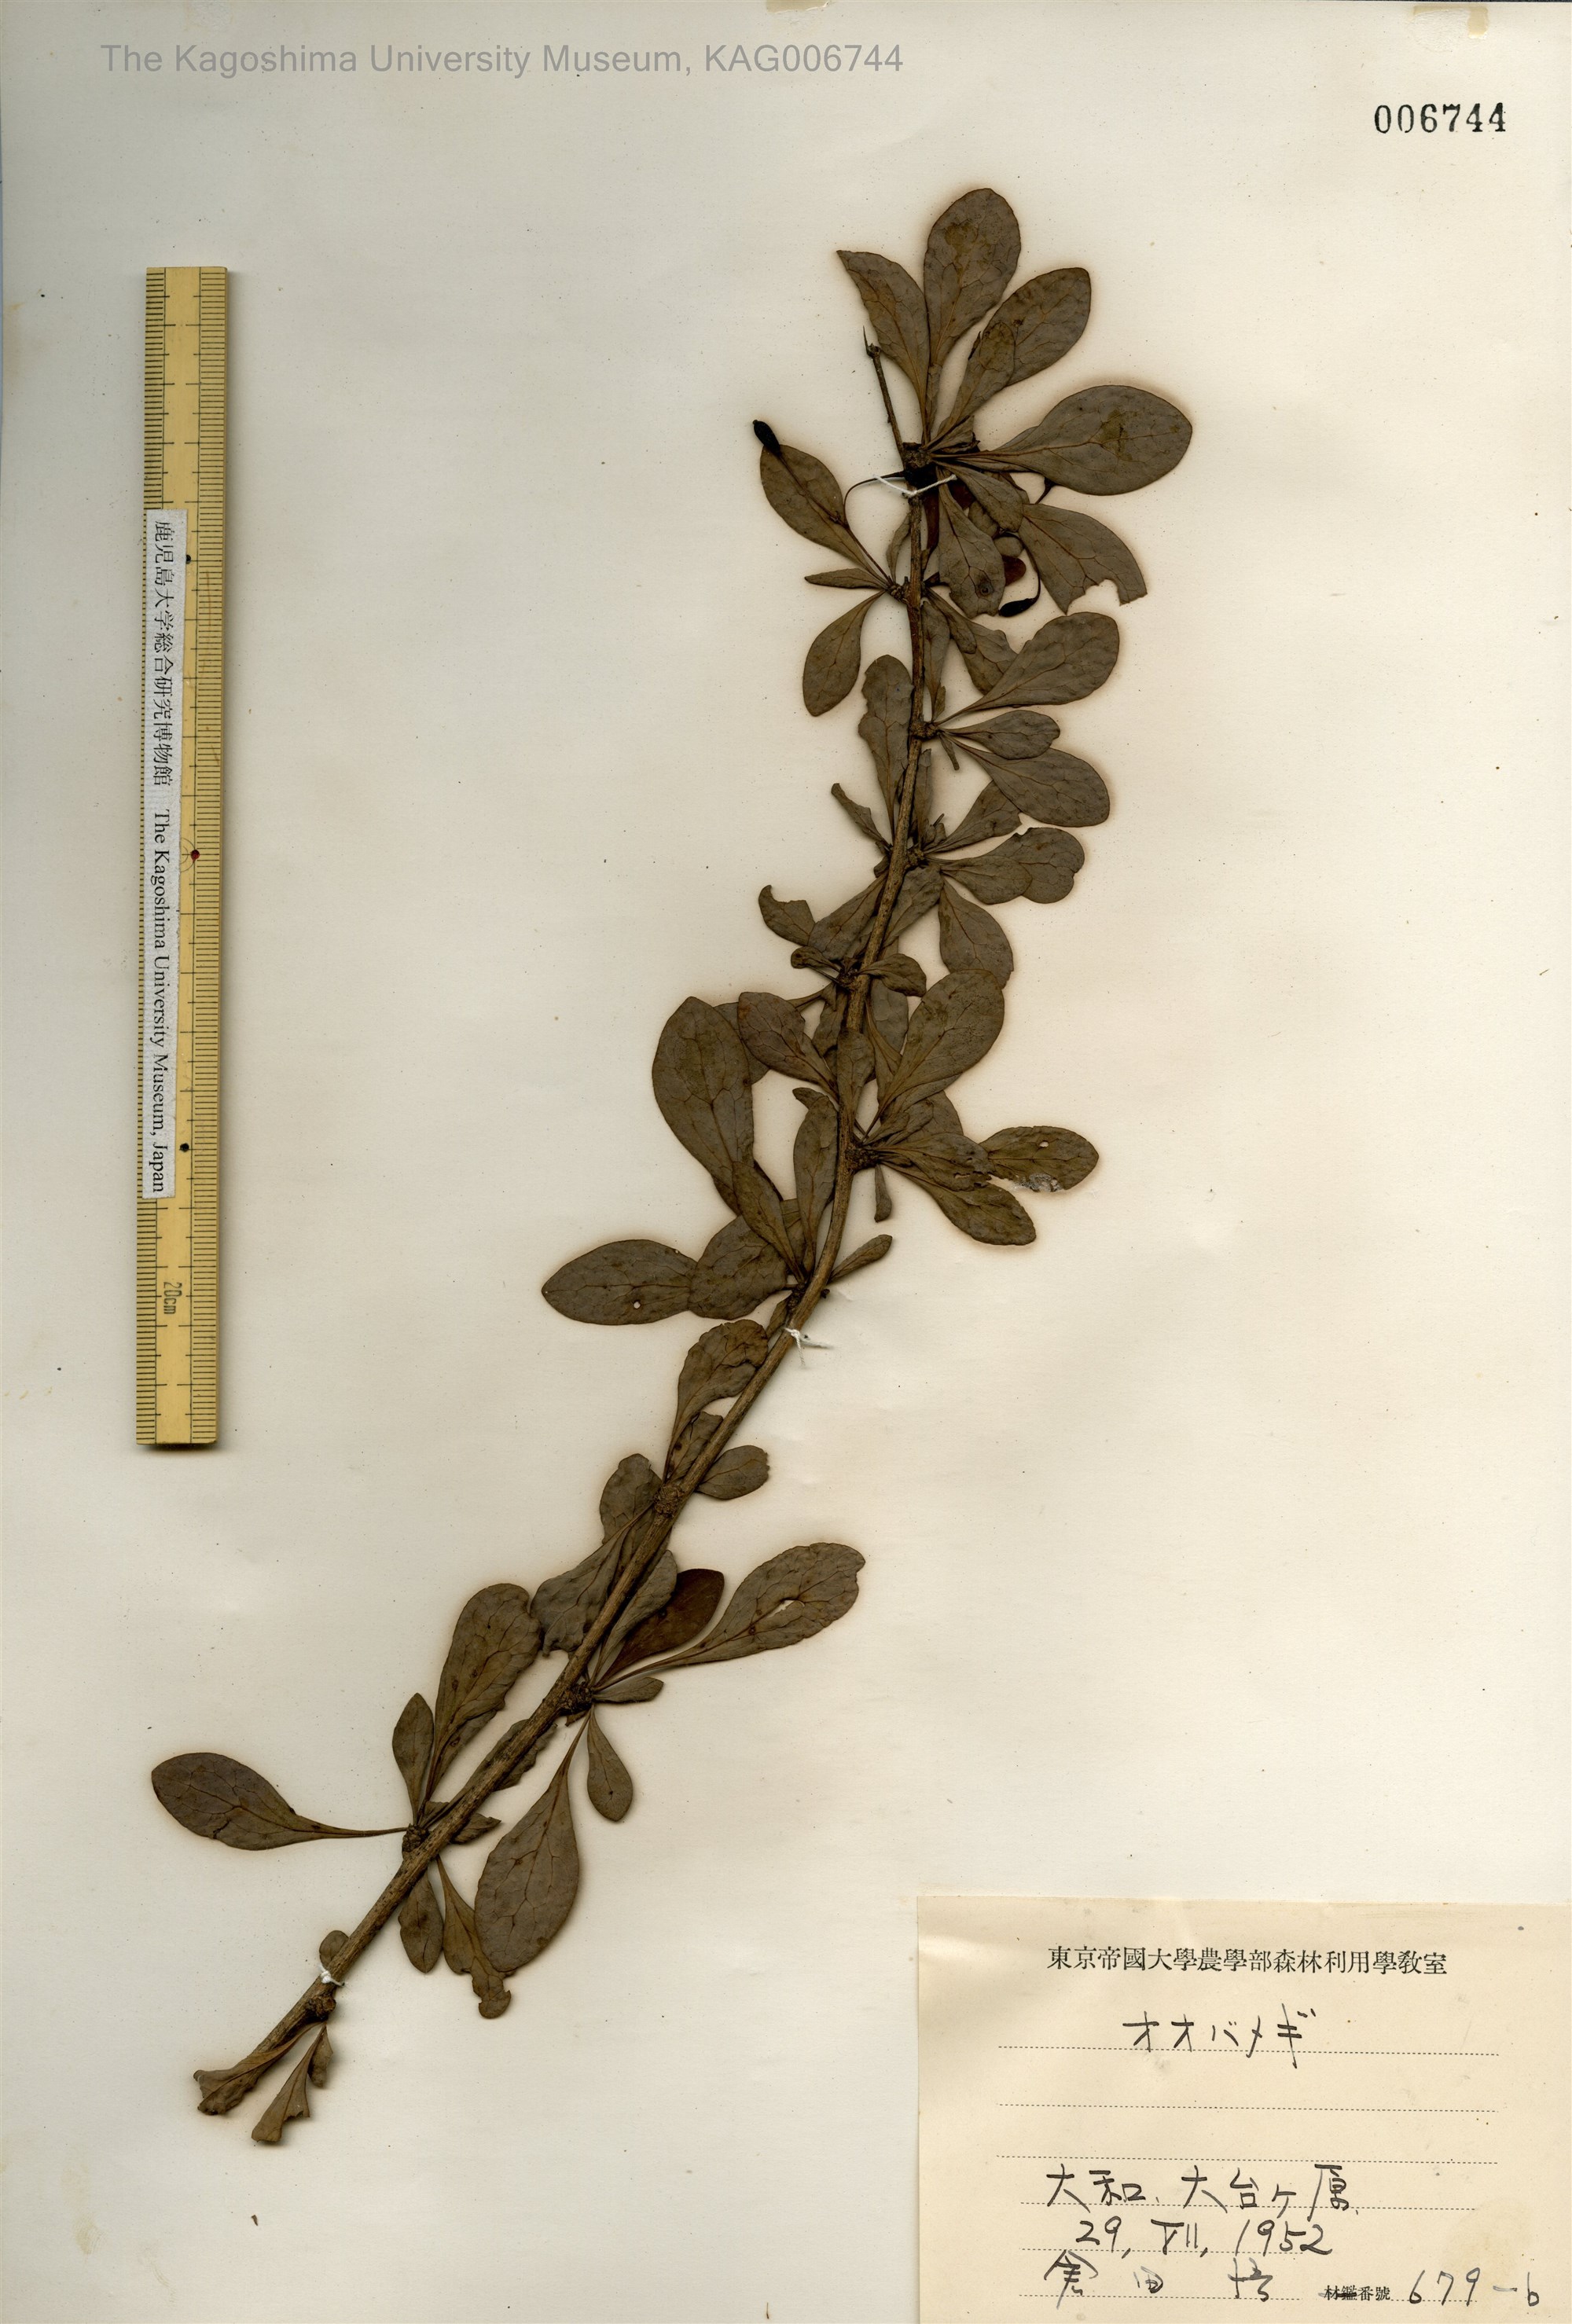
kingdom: Plantae
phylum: Tracheophyta
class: Magnoliopsida
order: Ranunculales
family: Berberidaceae
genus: Berberis
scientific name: Berberis tschonoskyana
